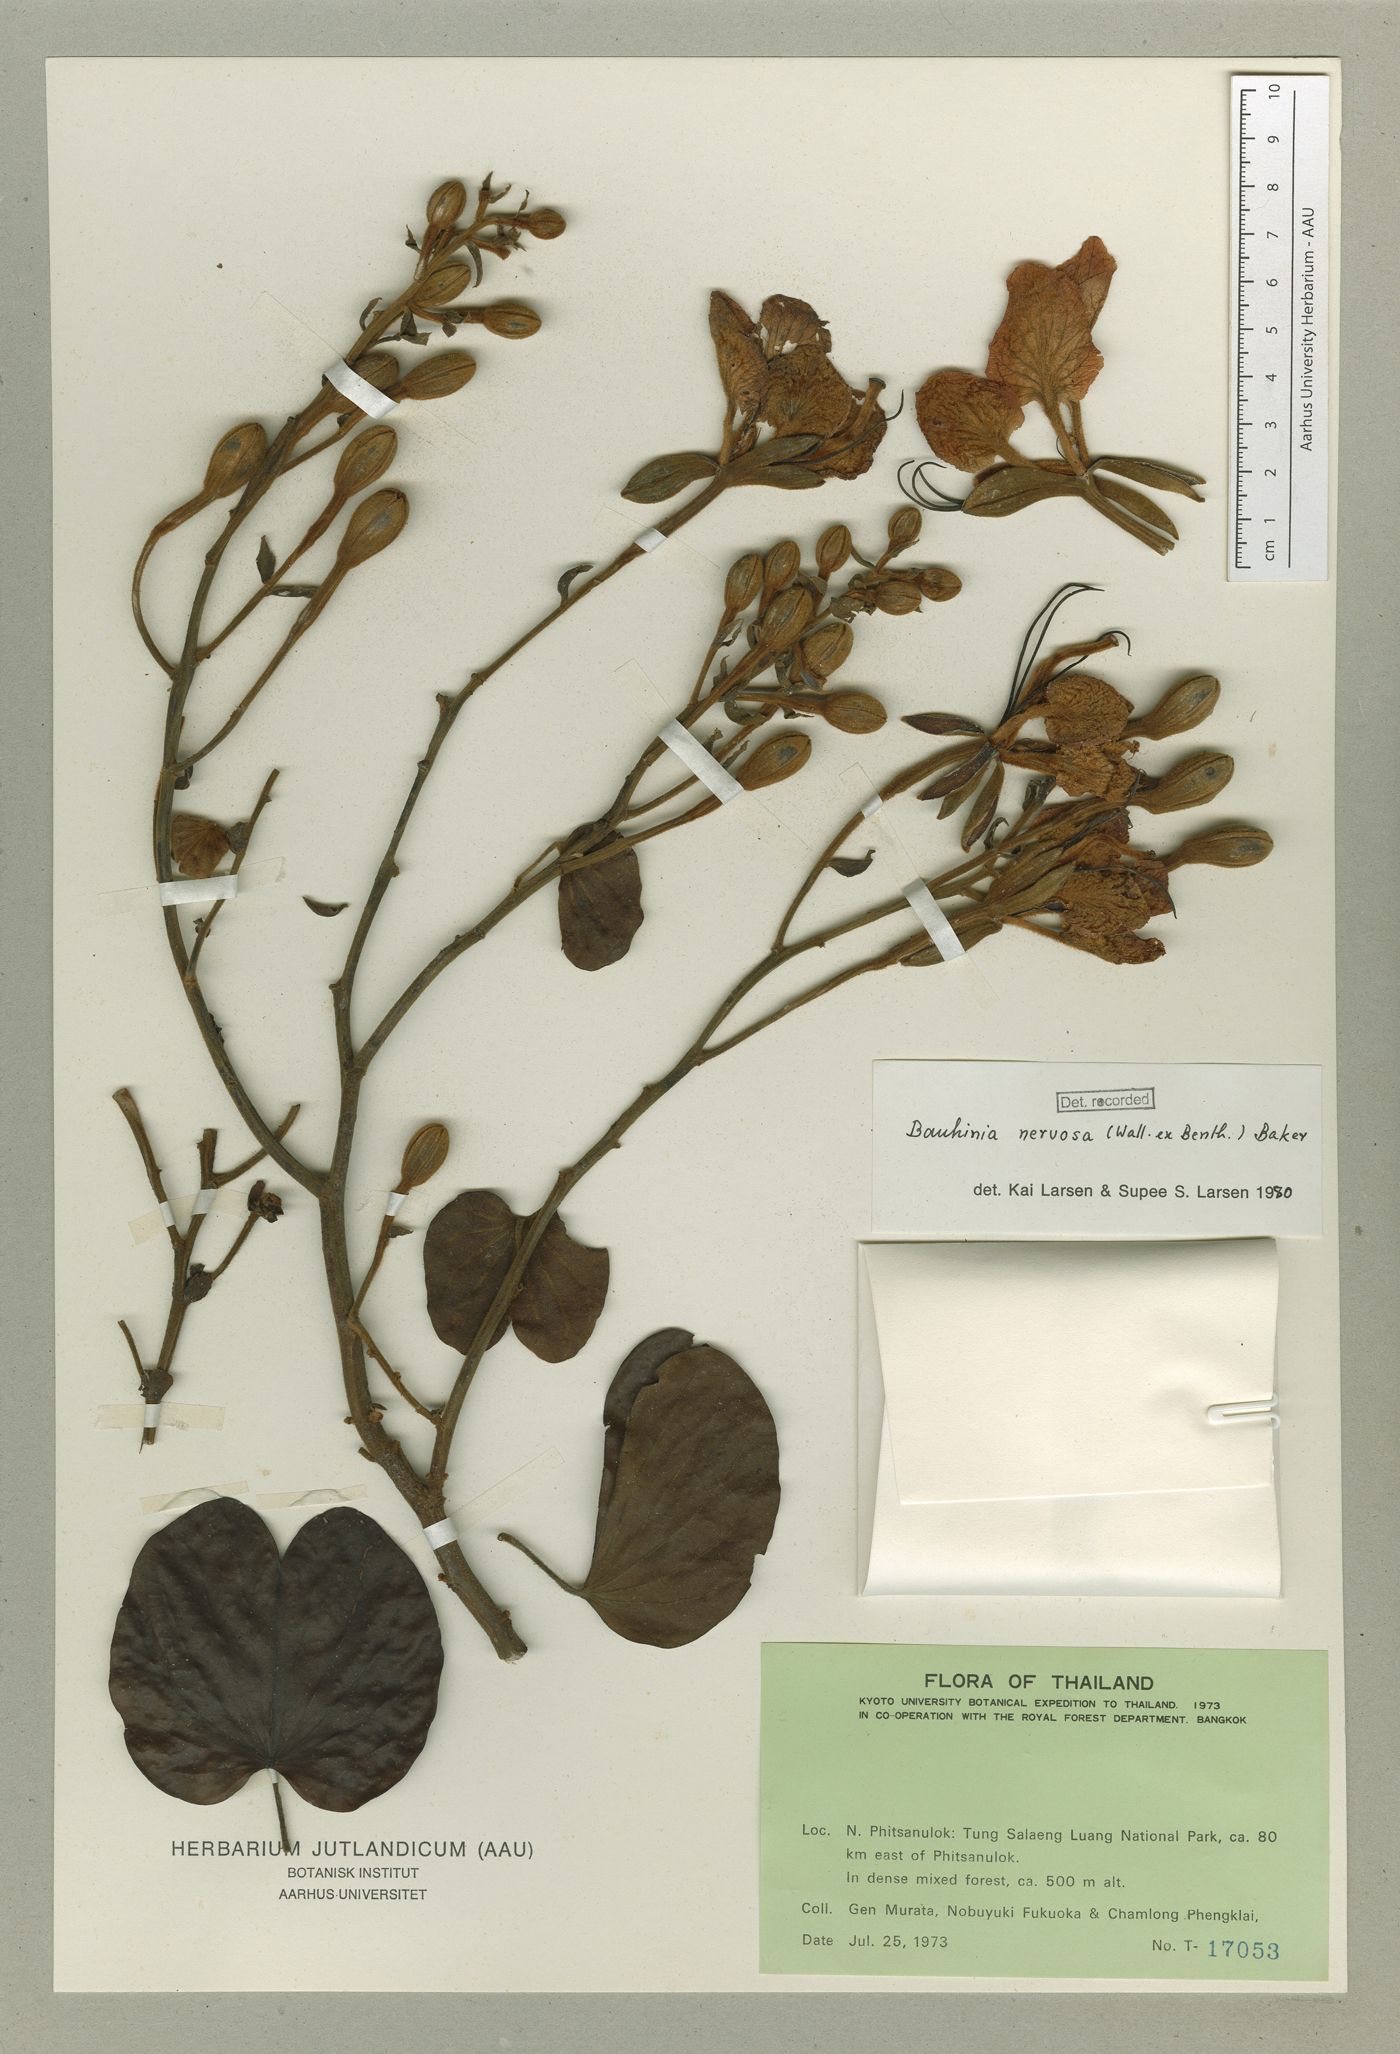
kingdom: Plantae
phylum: Tracheophyta
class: Magnoliopsida
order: Fabales
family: Fabaceae
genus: Bauhinia
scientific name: Bauhinia nervosa
